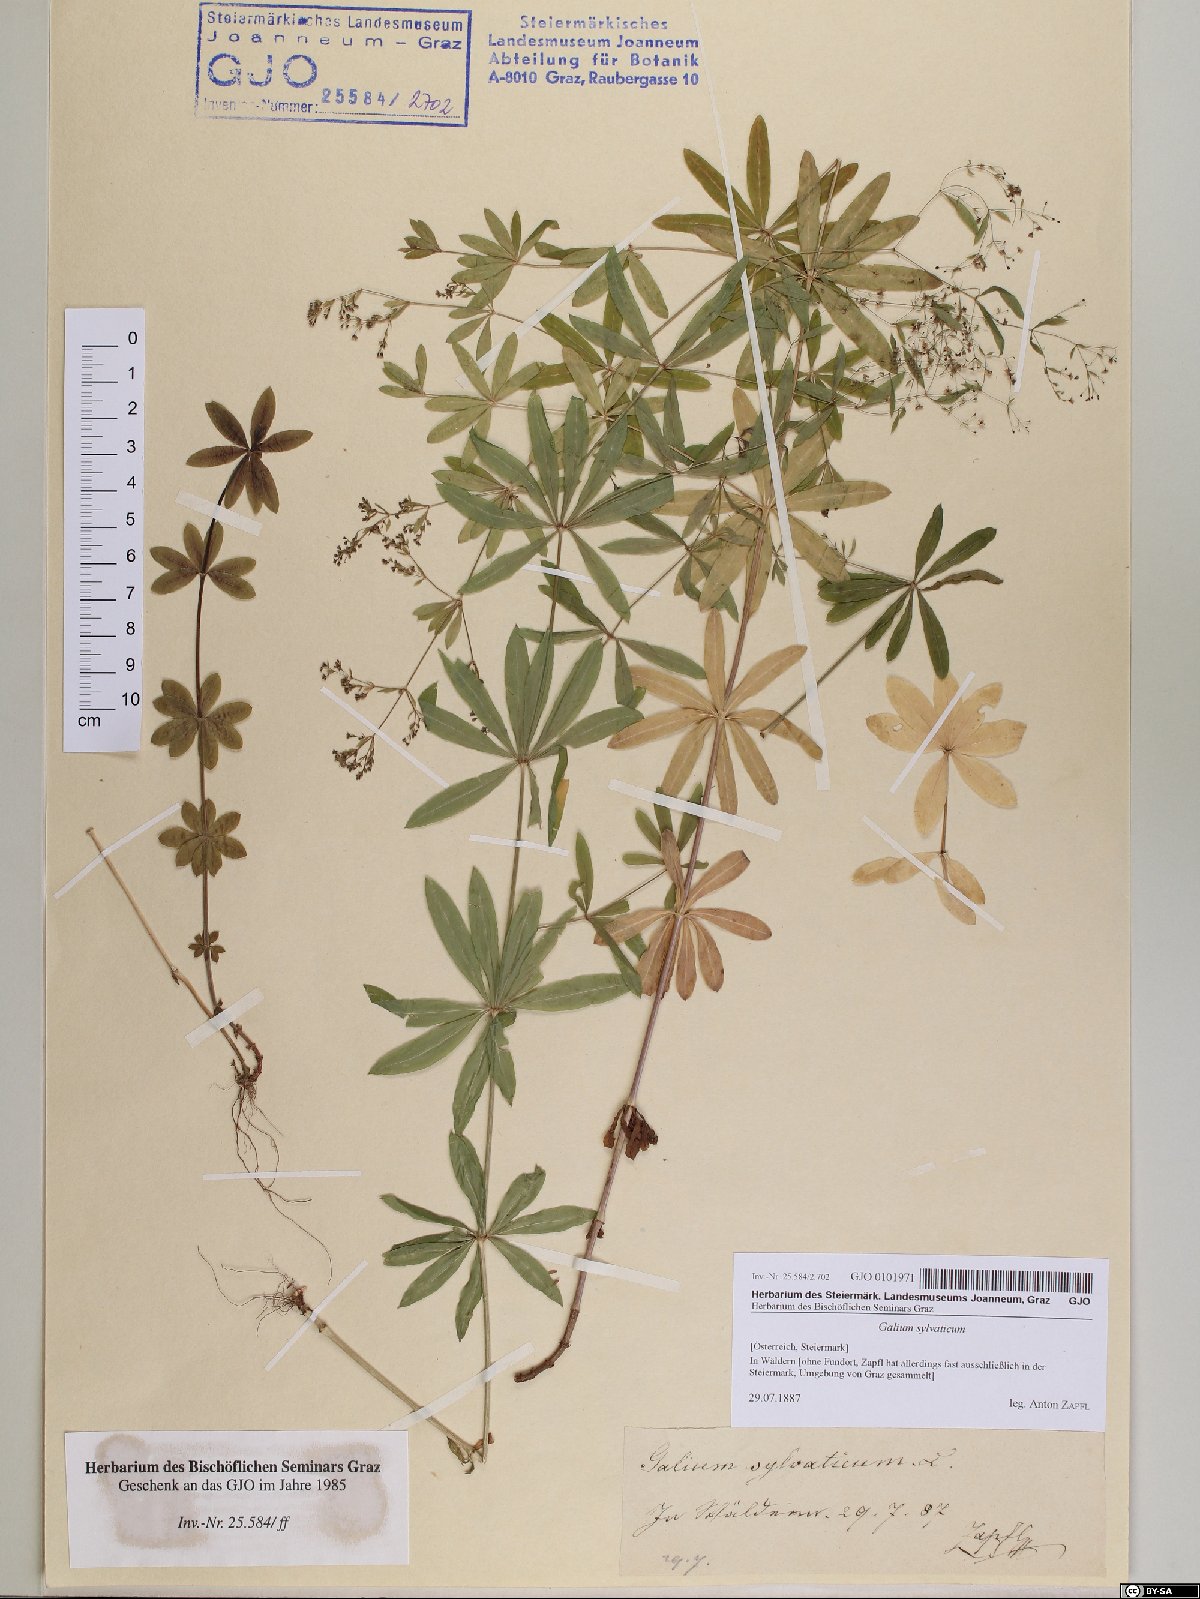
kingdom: Plantae
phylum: Tracheophyta
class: Magnoliopsida
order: Gentianales
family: Rubiaceae
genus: Galium
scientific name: Galium sylvaticum
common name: Wood bedstraw
